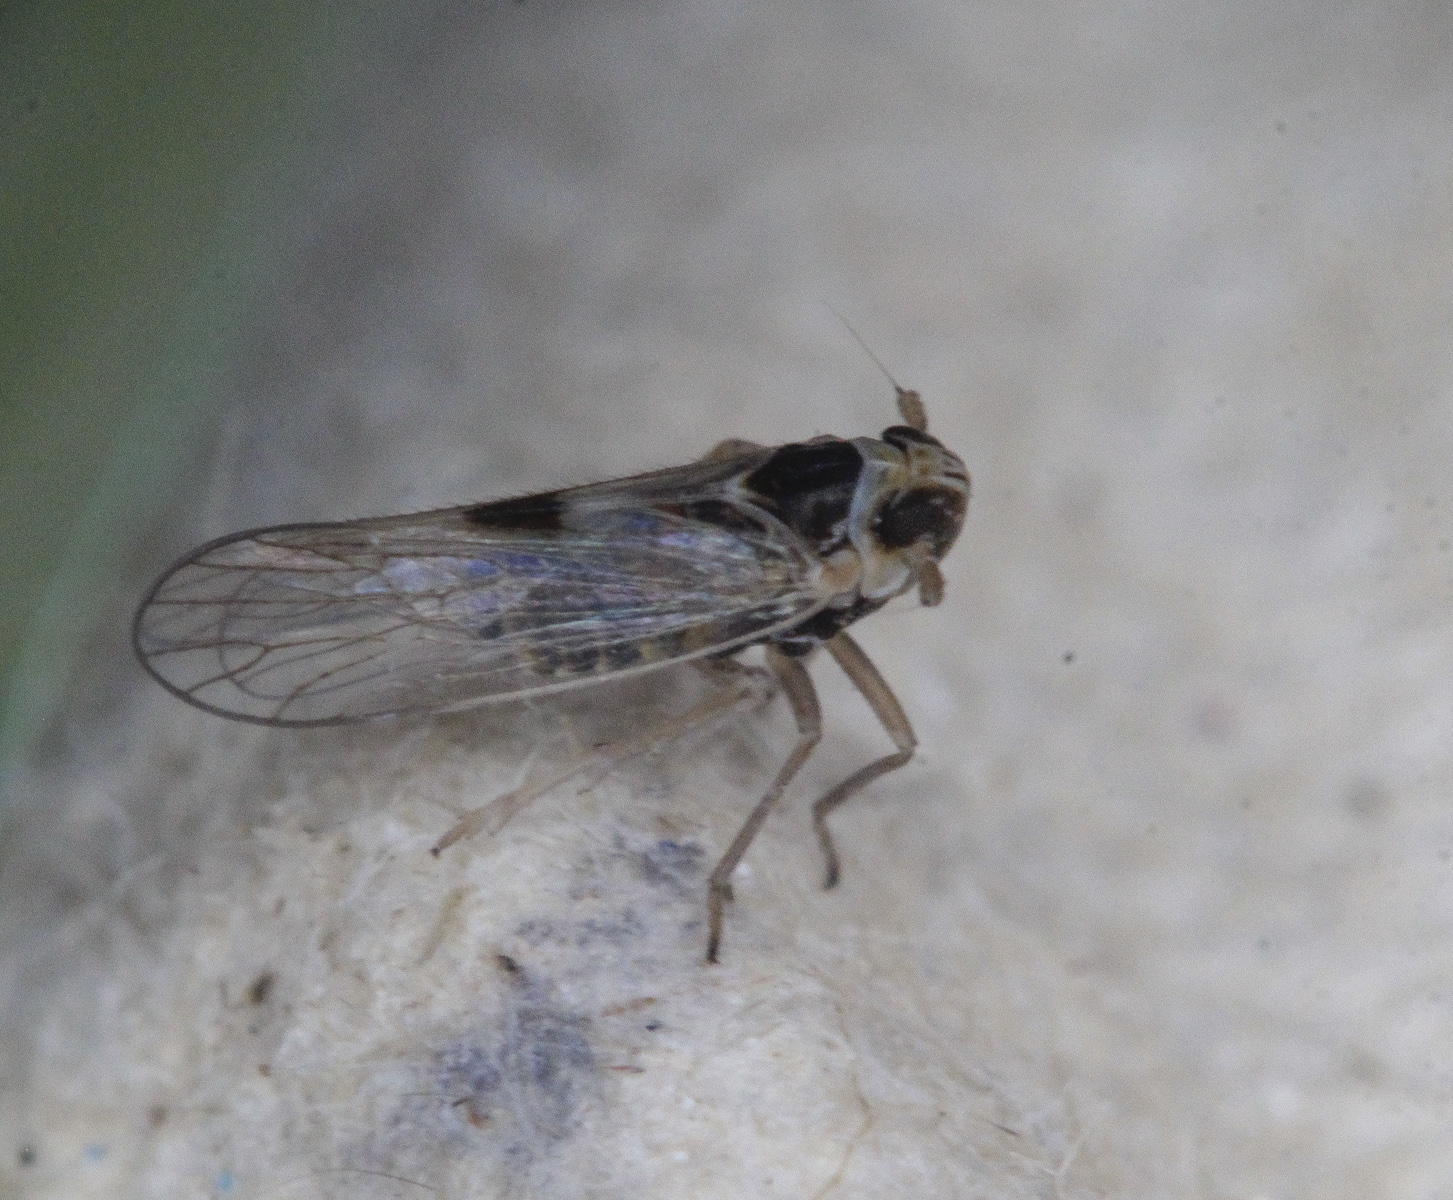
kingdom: Animalia
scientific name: Animalia
